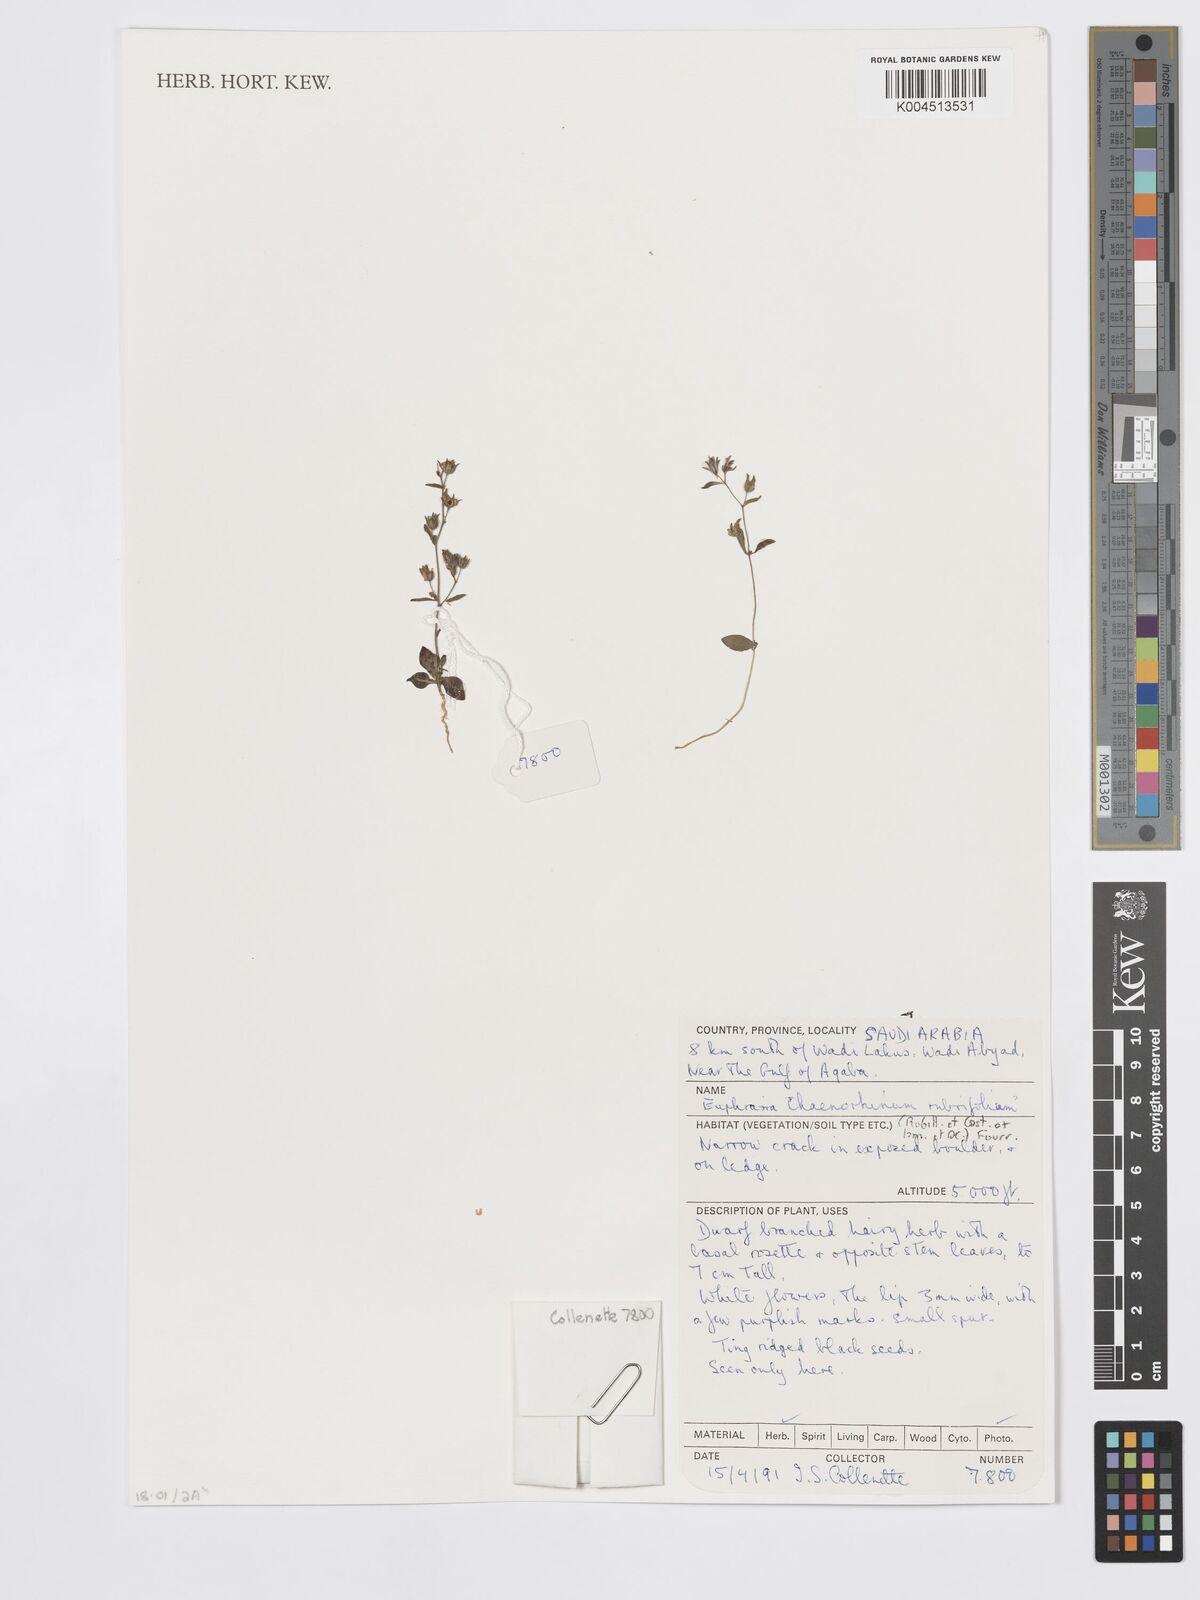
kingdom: Plantae
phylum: Tracheophyta
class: Magnoliopsida
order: Lamiales
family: Plantaginaceae
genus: Chaenorhinum
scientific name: Chaenorhinum rubrifolium
